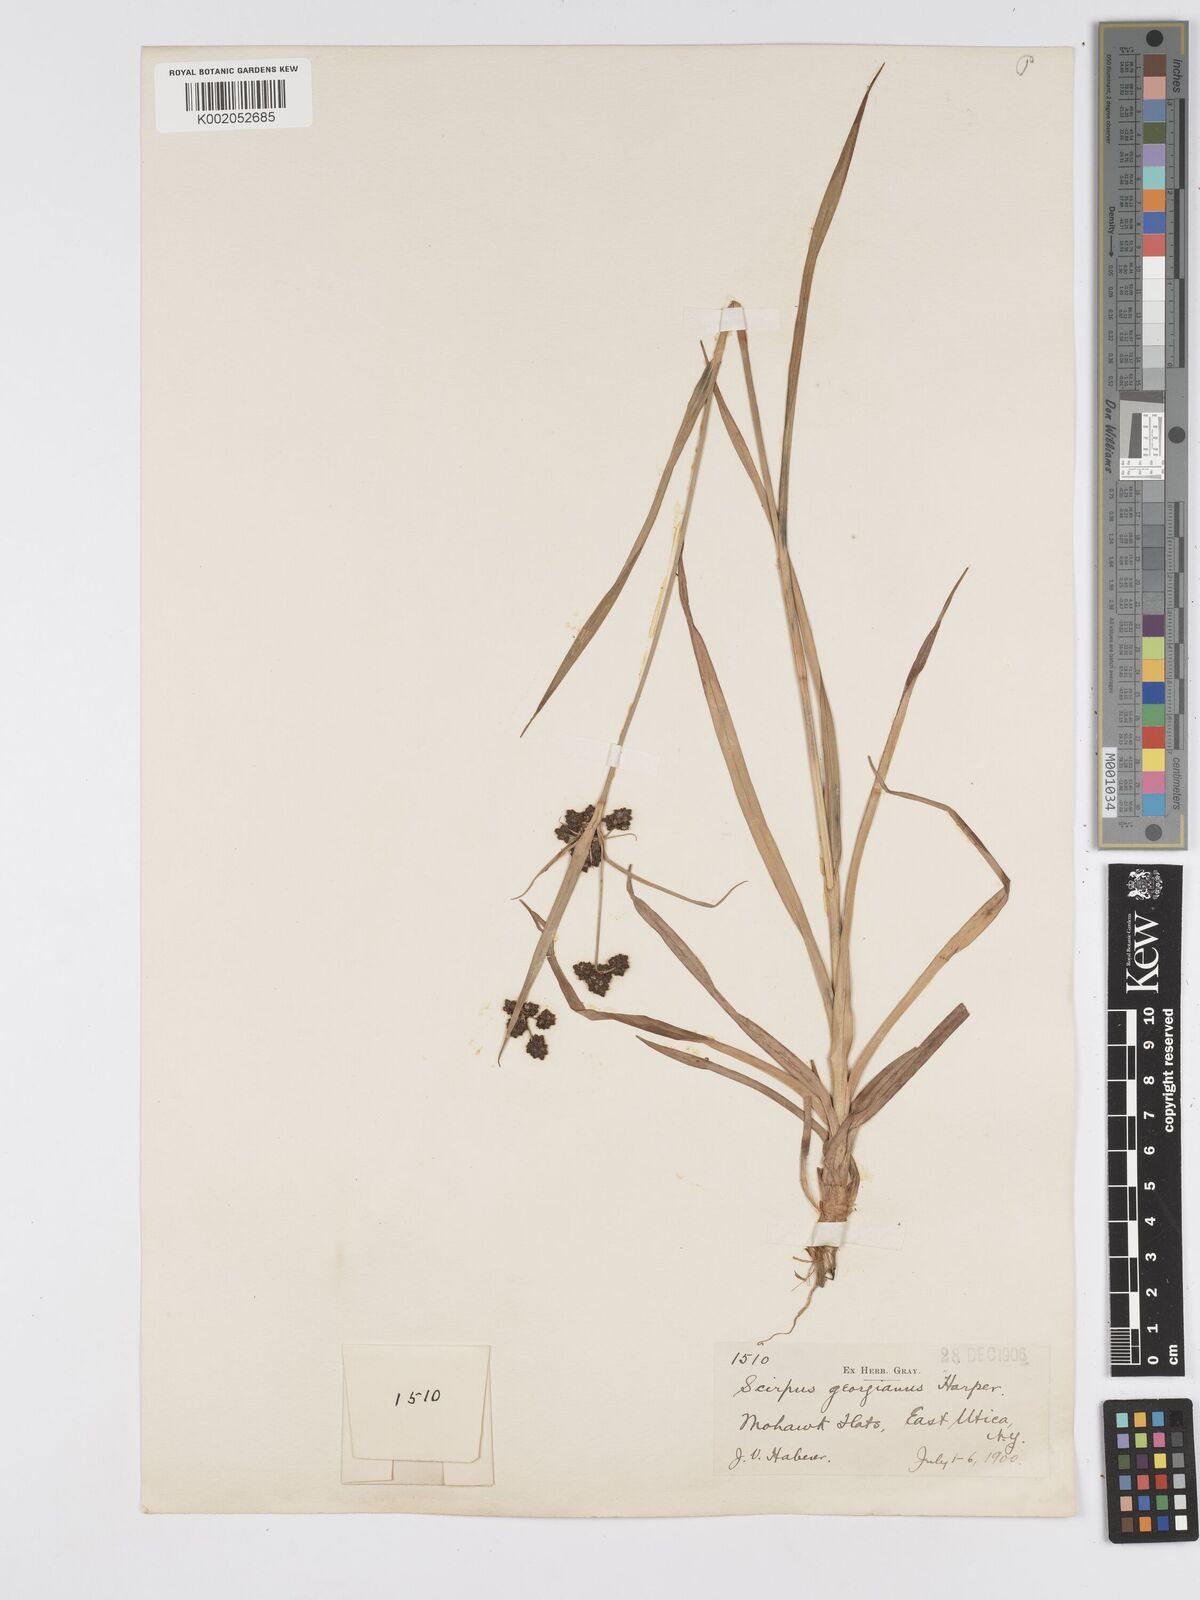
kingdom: Plantae
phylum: Tracheophyta
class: Liliopsida
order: Poales
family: Cyperaceae
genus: Scirpus
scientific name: Scirpus atrovirens
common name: Black bulrush
